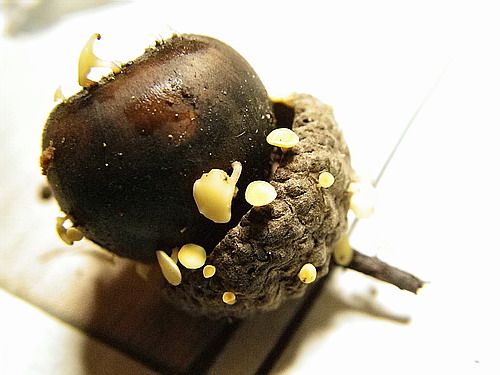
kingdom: Fungi
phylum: Ascomycota
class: Leotiomycetes
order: Helotiales
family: Helotiaceae
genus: Hymenoscyphus
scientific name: Hymenoscyphus fructigenus
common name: frugt-stilkskive
